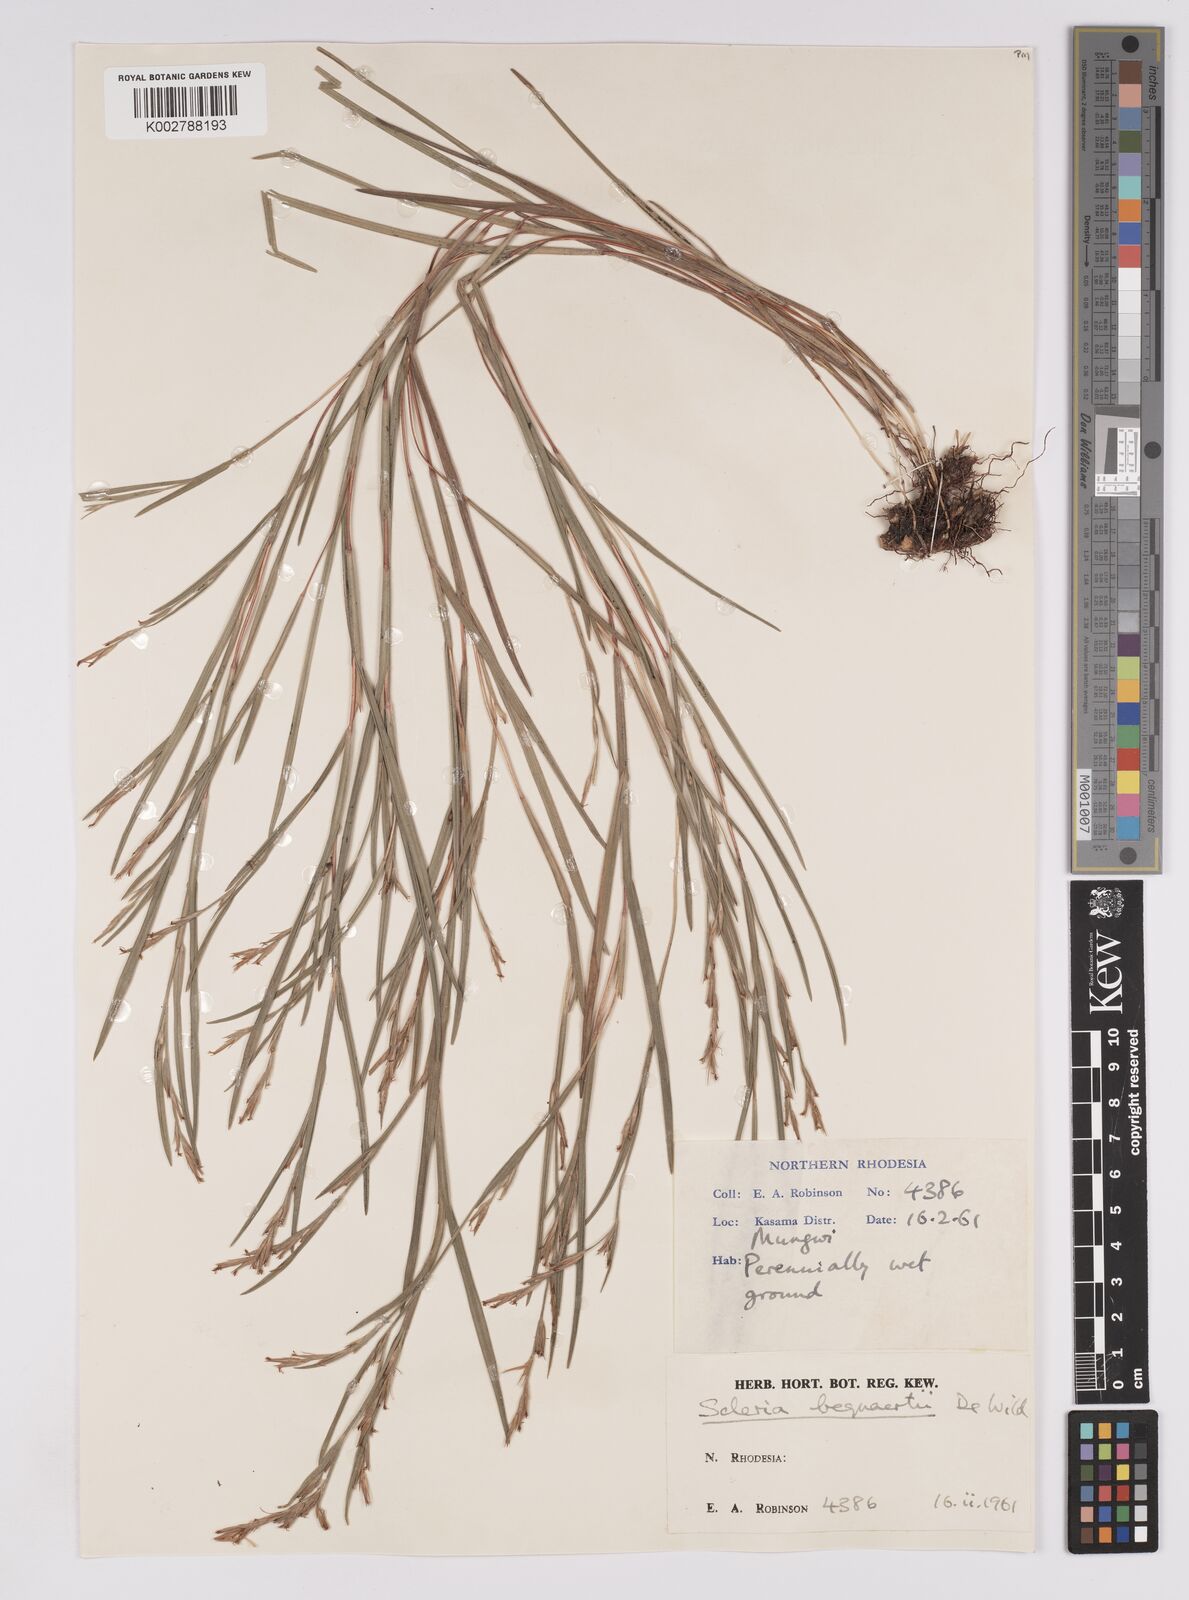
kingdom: Plantae
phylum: Tracheophyta
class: Liliopsida
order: Poales
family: Cyperaceae
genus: Scleria
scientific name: Scleria bequaertii
